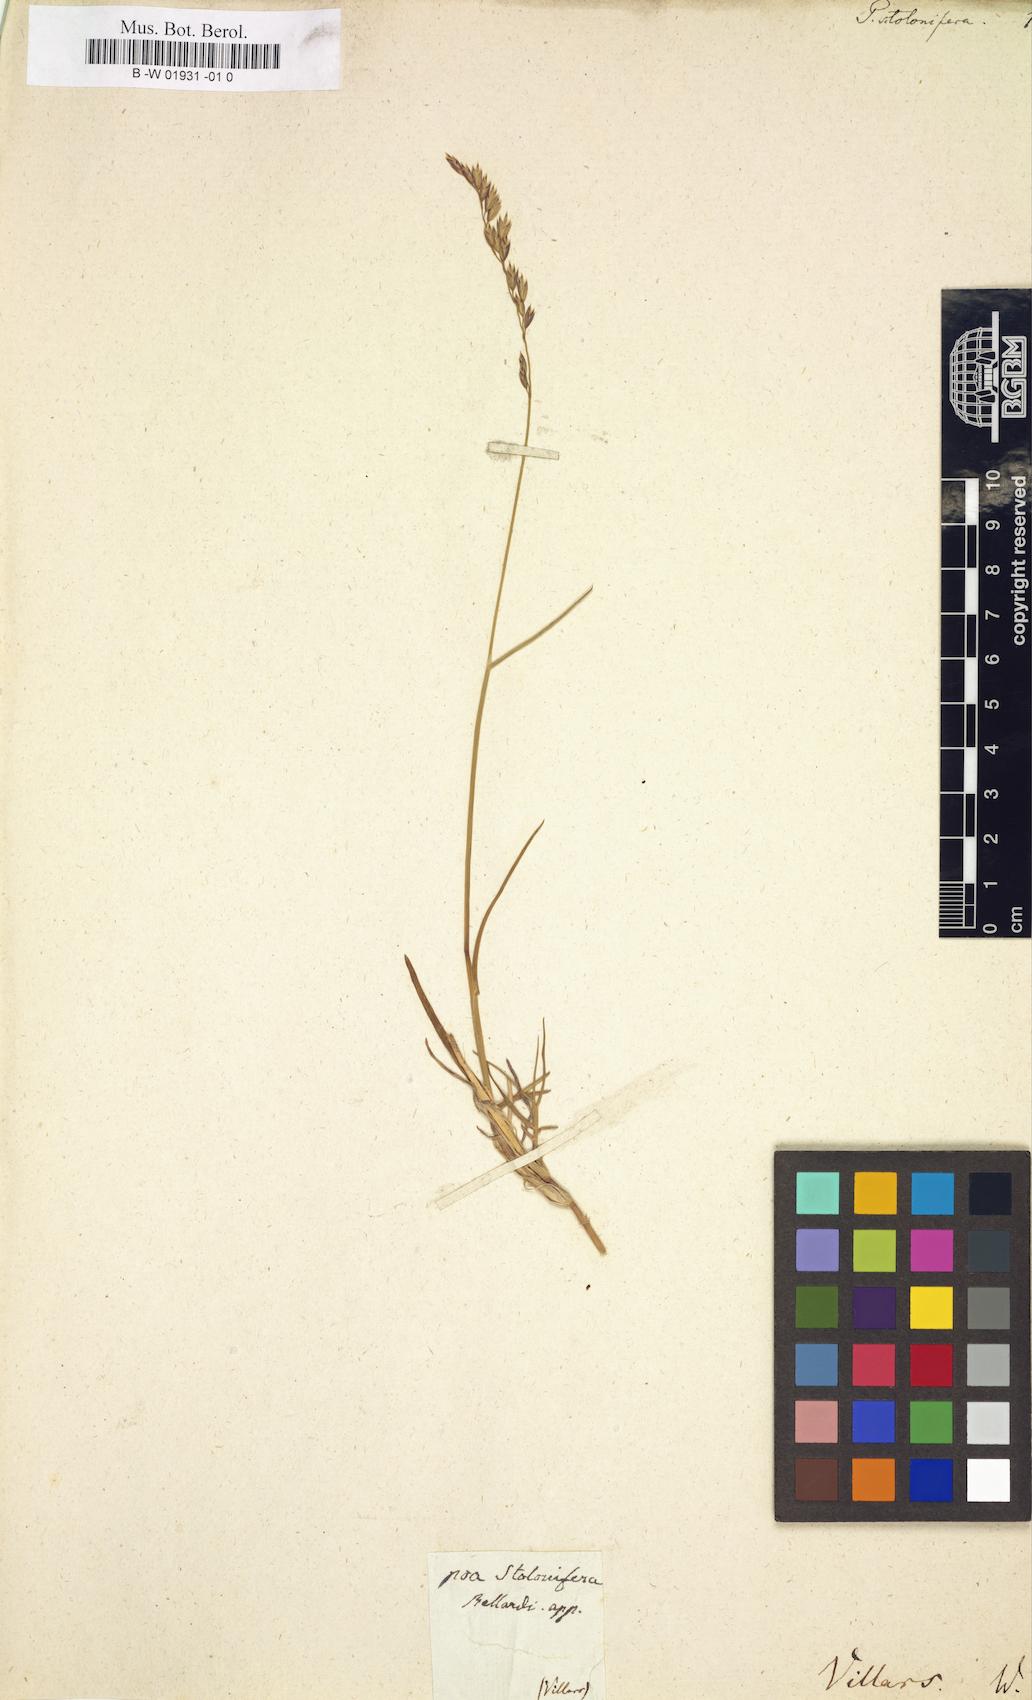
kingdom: Plantae
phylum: Tracheophyta
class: Liliopsida
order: Poales
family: Poaceae
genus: Poa
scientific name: Poa
